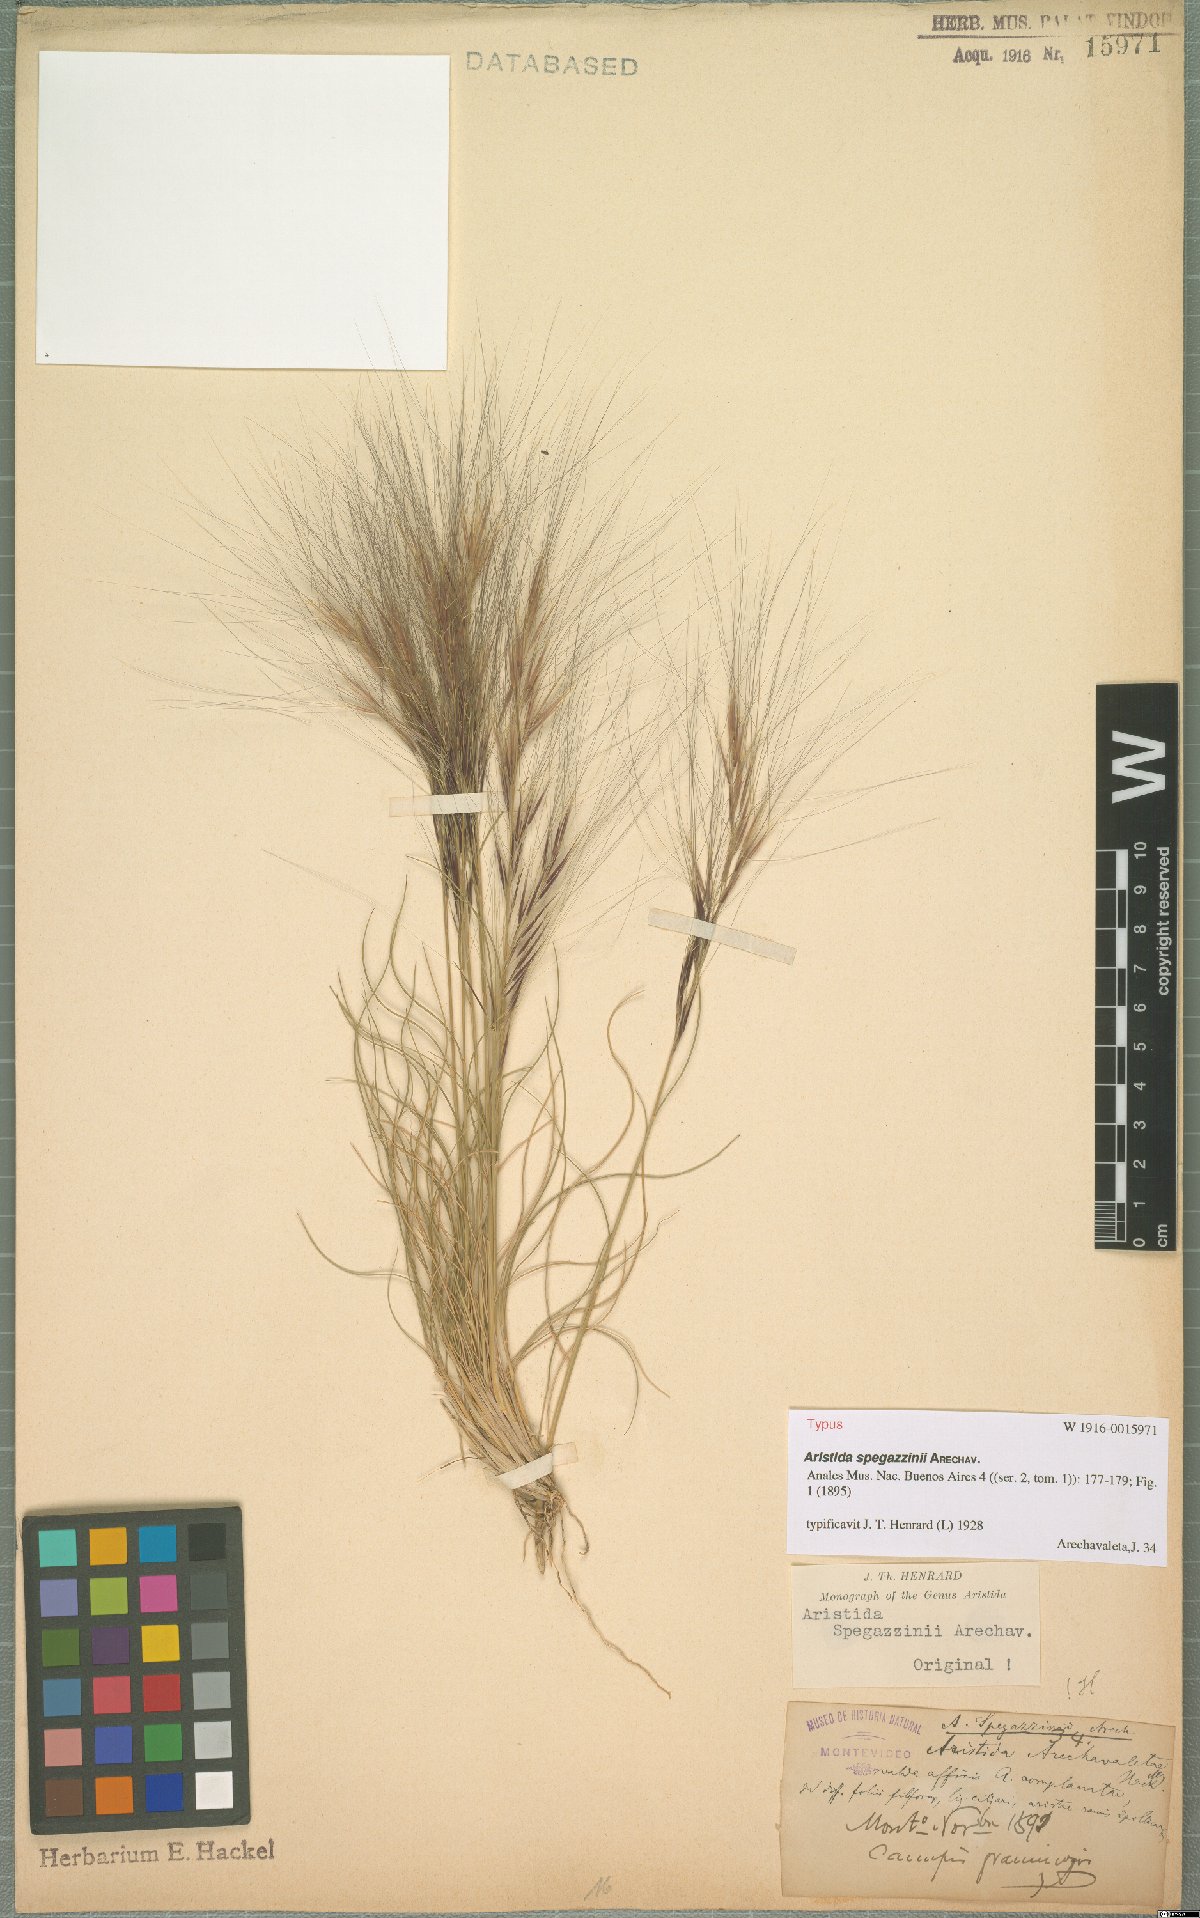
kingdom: Plantae
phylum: Tracheophyta
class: Liliopsida
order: Poales
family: Poaceae
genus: Aristida
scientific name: Aristida spegazzinii
